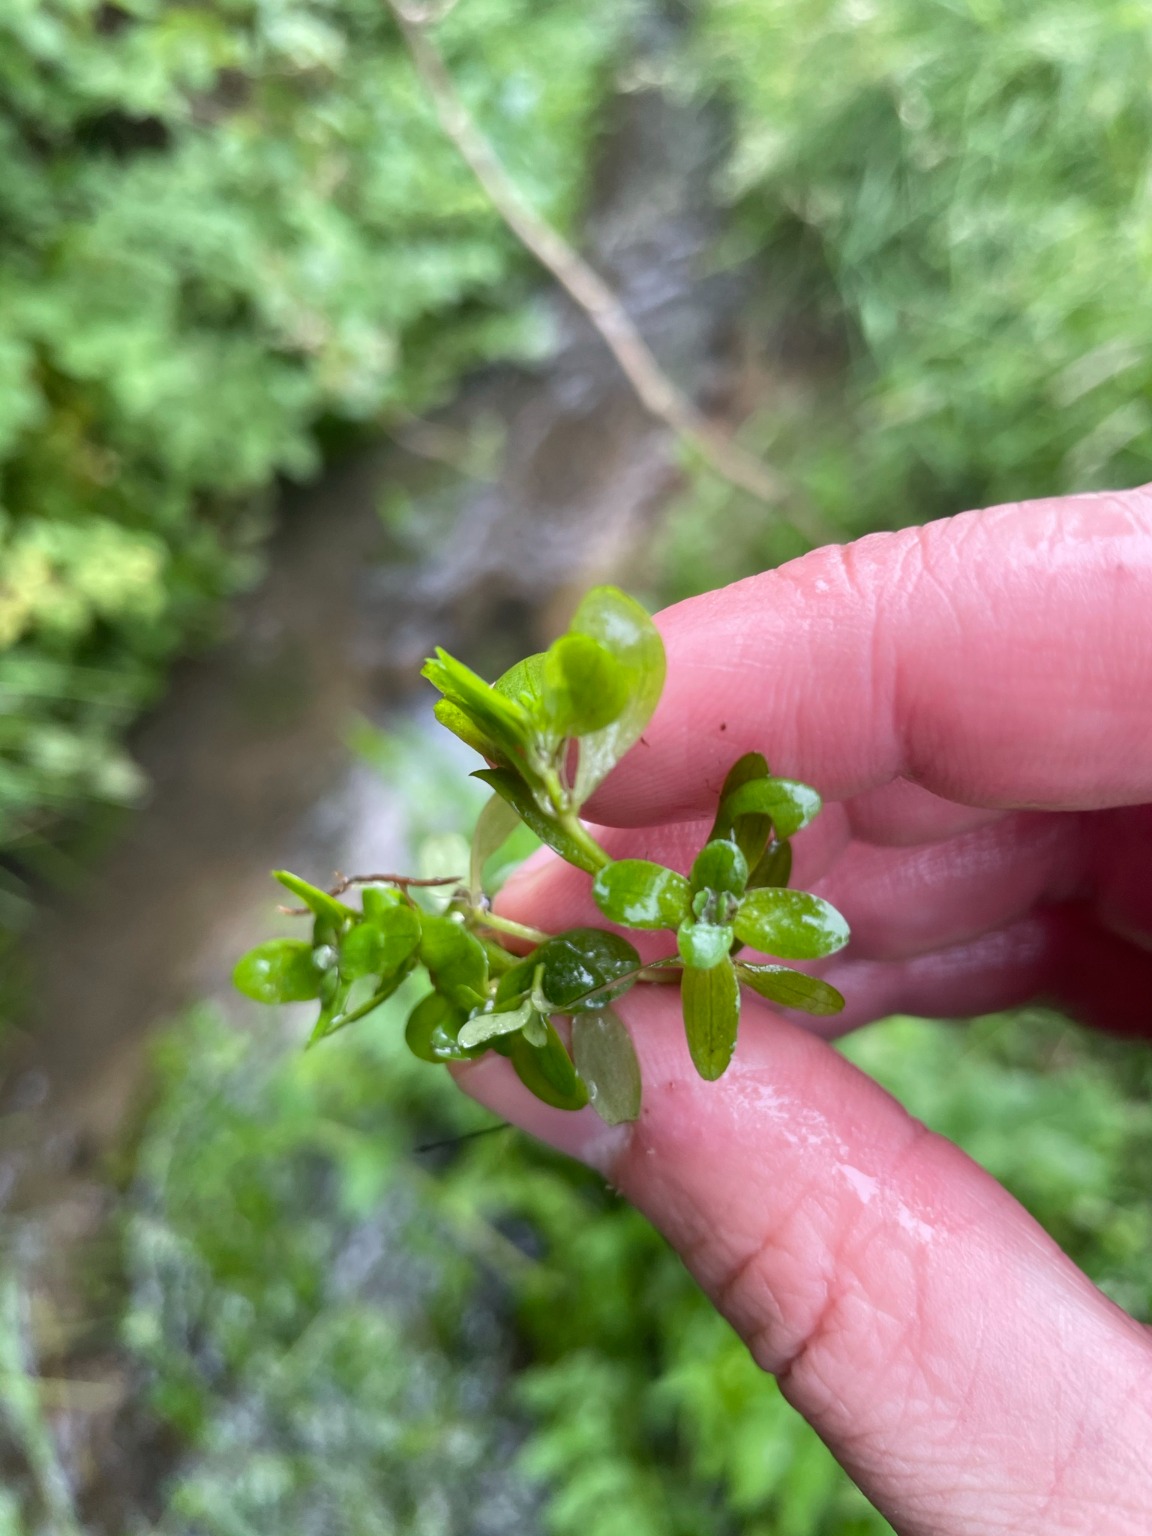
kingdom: Plantae
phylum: Tracheophyta
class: Magnoliopsida
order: Lamiales
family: Plantaginaceae
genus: Callitriche
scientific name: Callitriche
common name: Vandstjerneslægten
